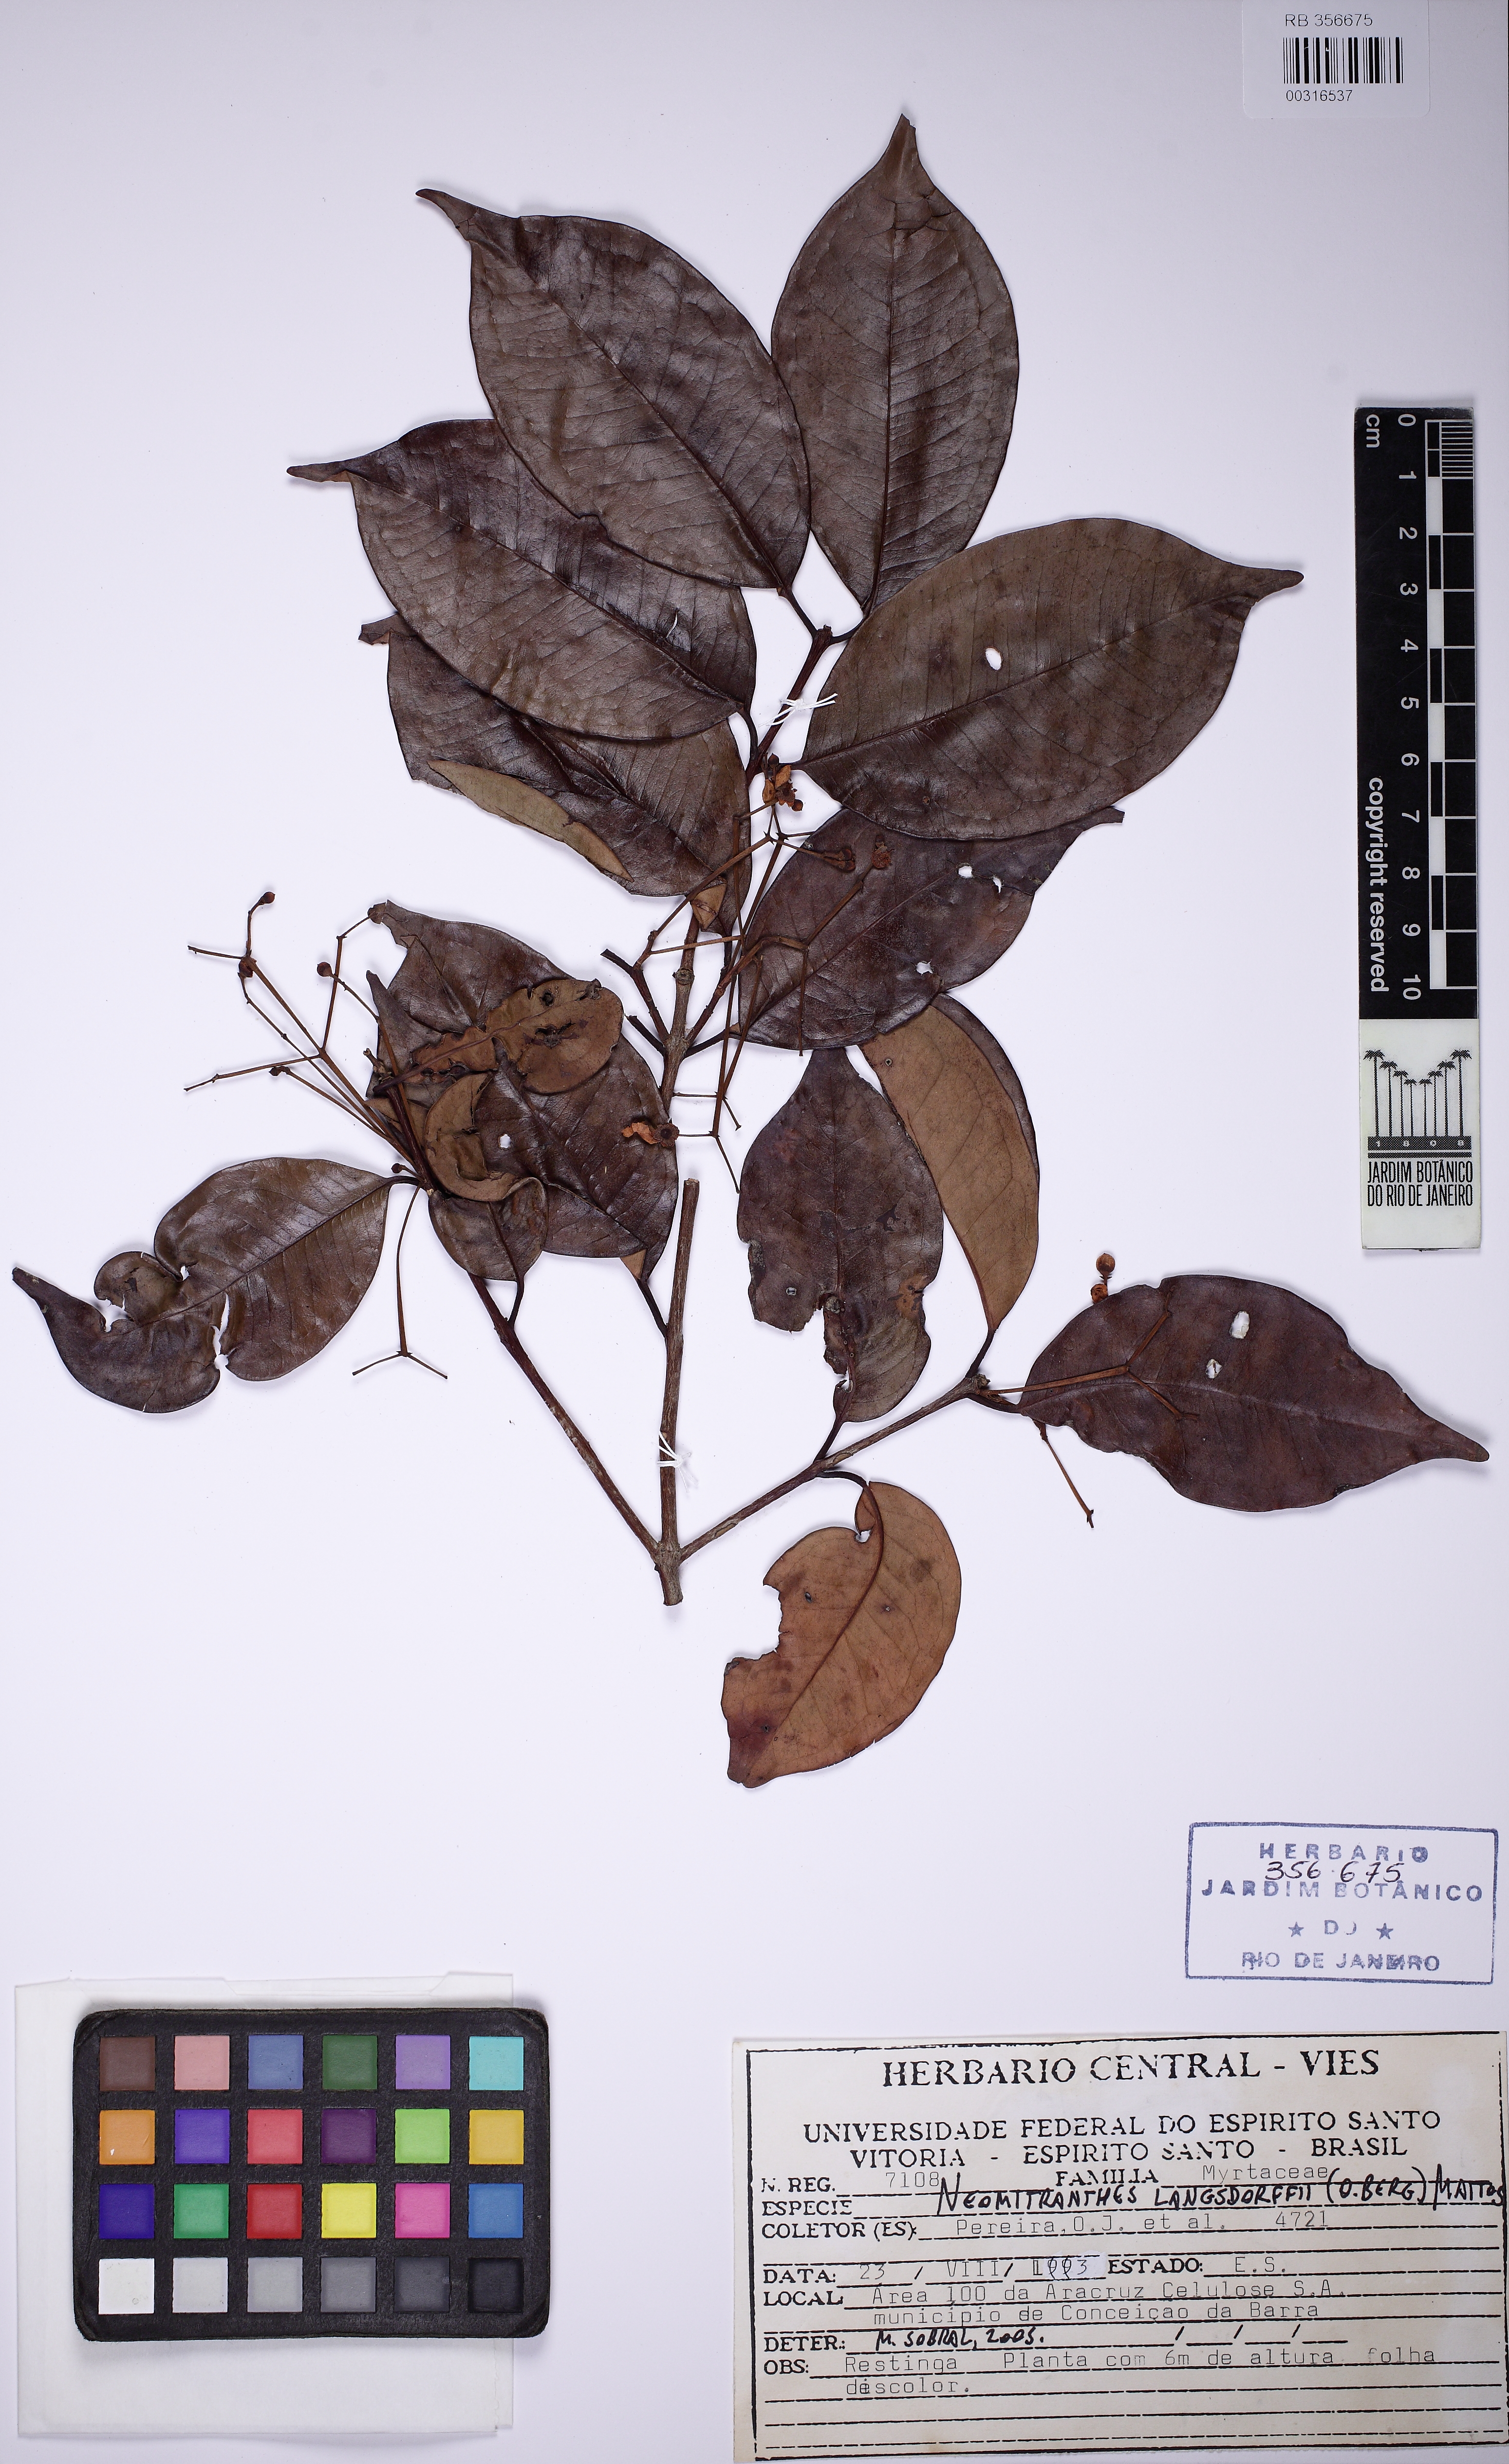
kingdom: Plantae
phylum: Tracheophyta
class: Magnoliopsida
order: Myrtales
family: Myrtaceae
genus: Neomitranthes
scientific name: Neomitranthes langsdorffii
